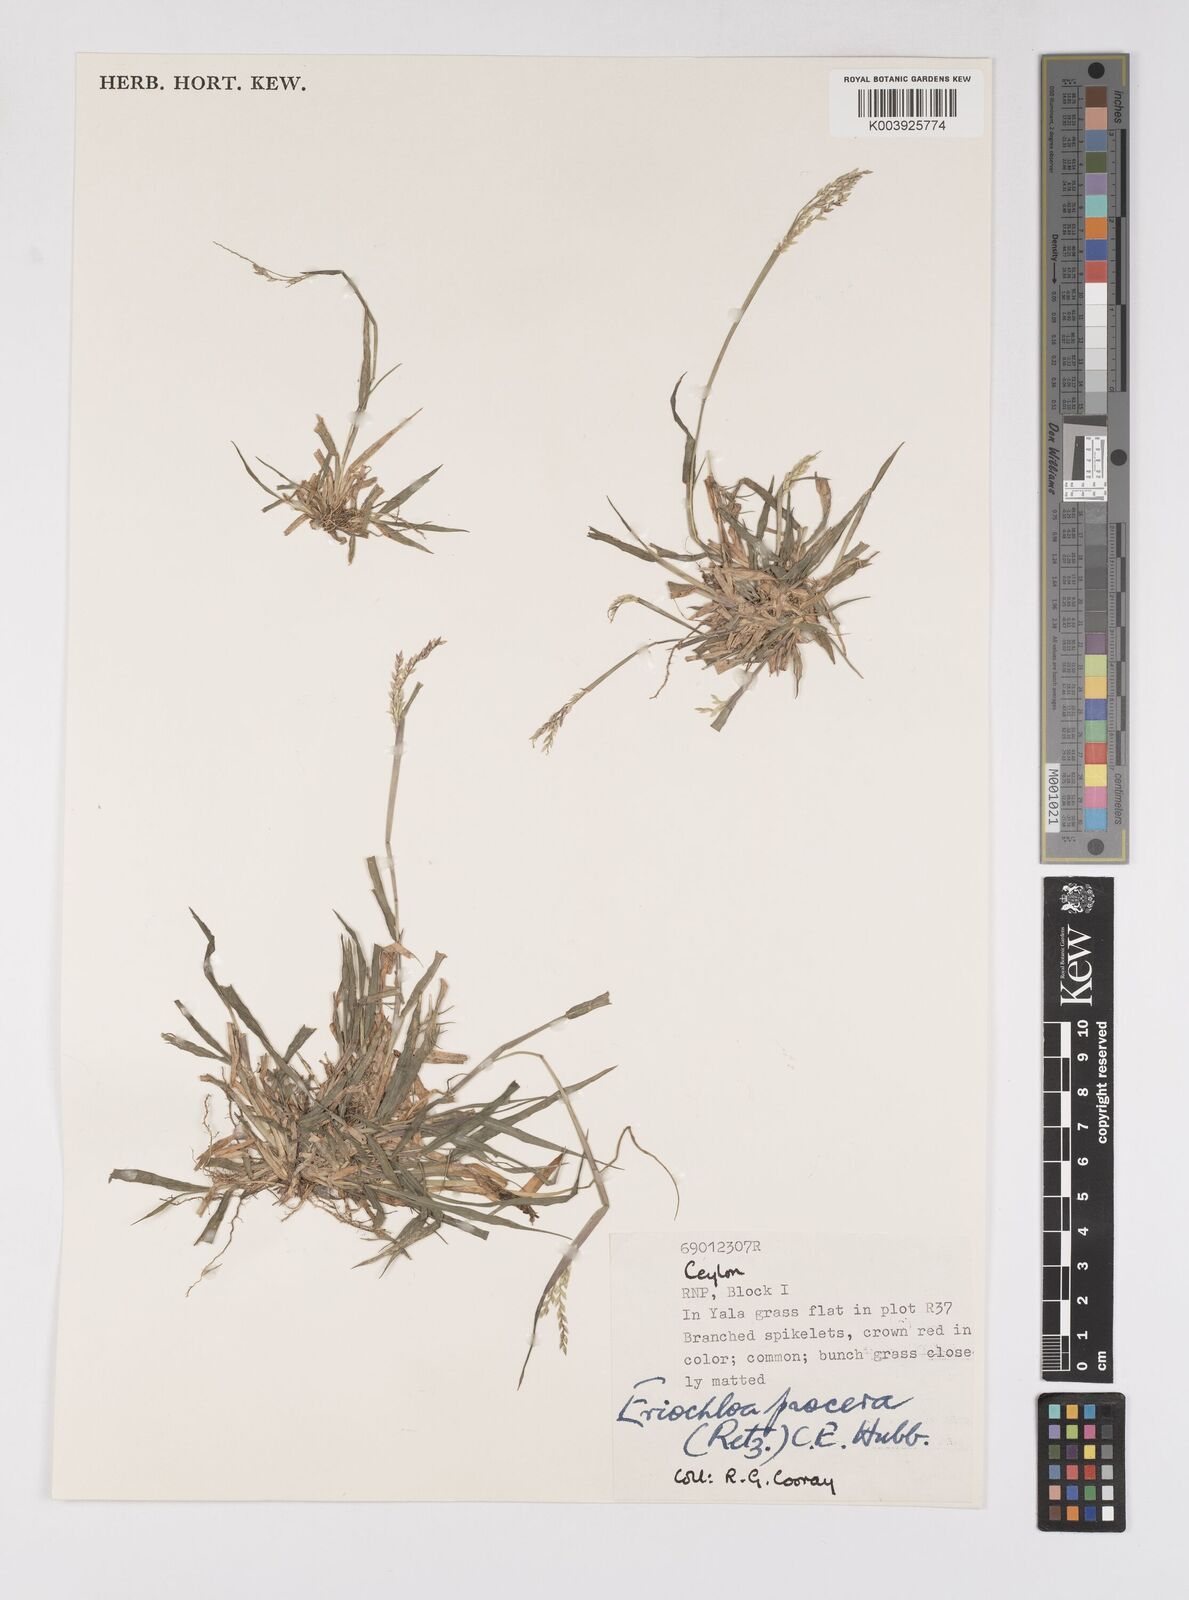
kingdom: Plantae
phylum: Tracheophyta
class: Liliopsida
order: Poales
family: Poaceae
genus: Eriochloa
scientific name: Eriochloa procera
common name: Spring grass
